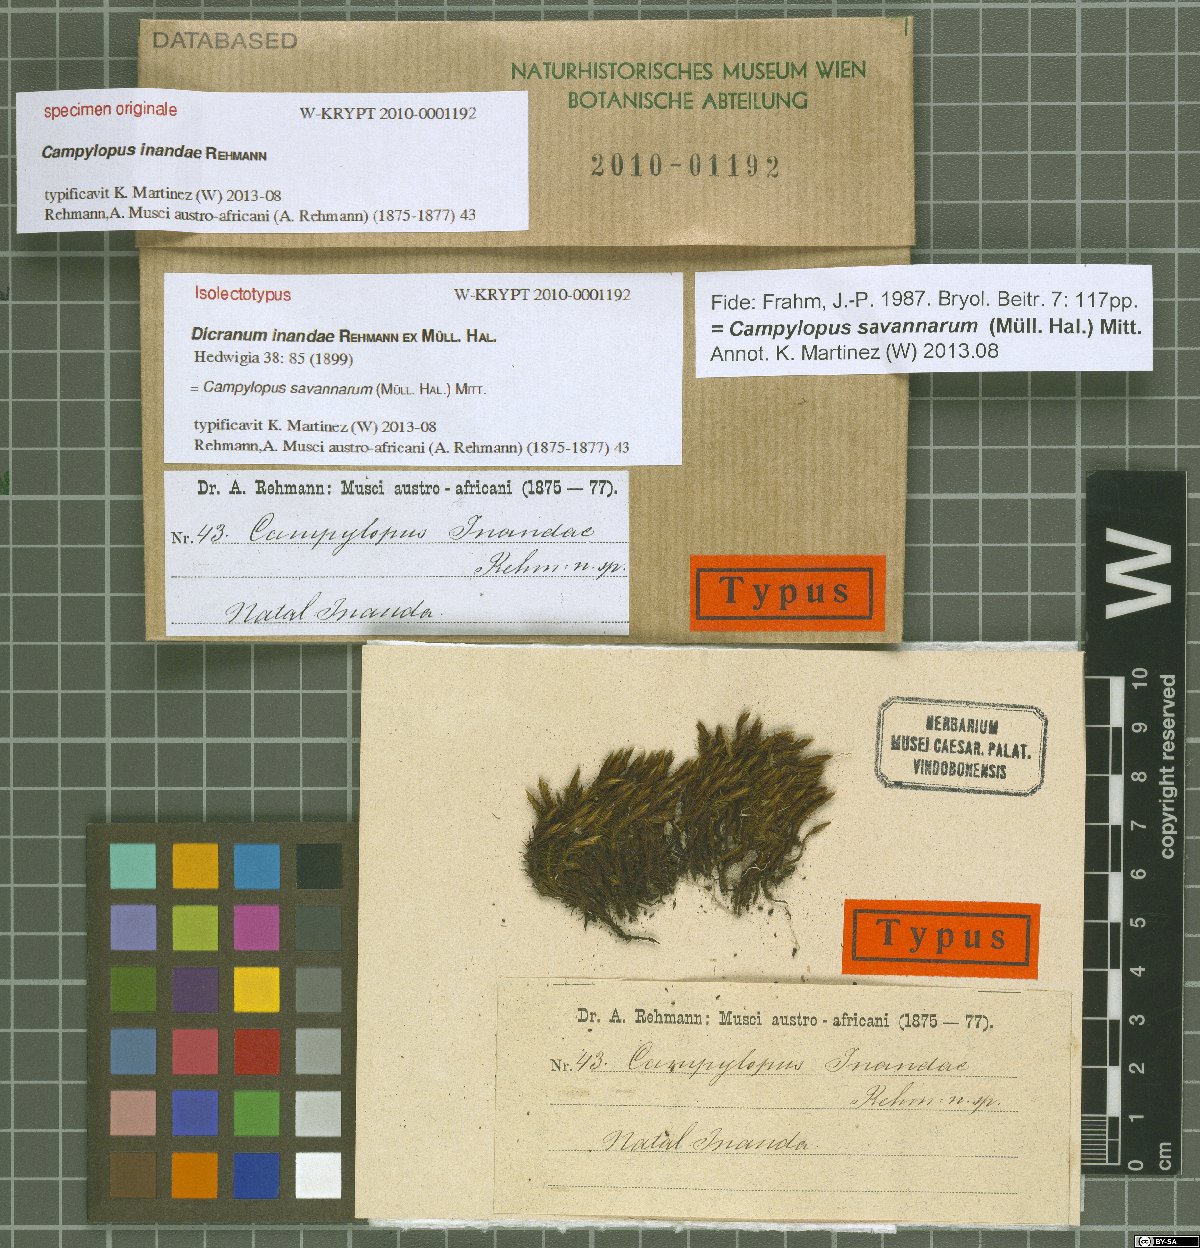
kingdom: Plantae
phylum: Bryophyta
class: Bryopsida
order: Dicranales
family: Leucobryaceae
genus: Campylopus
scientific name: Campylopus savannarum
